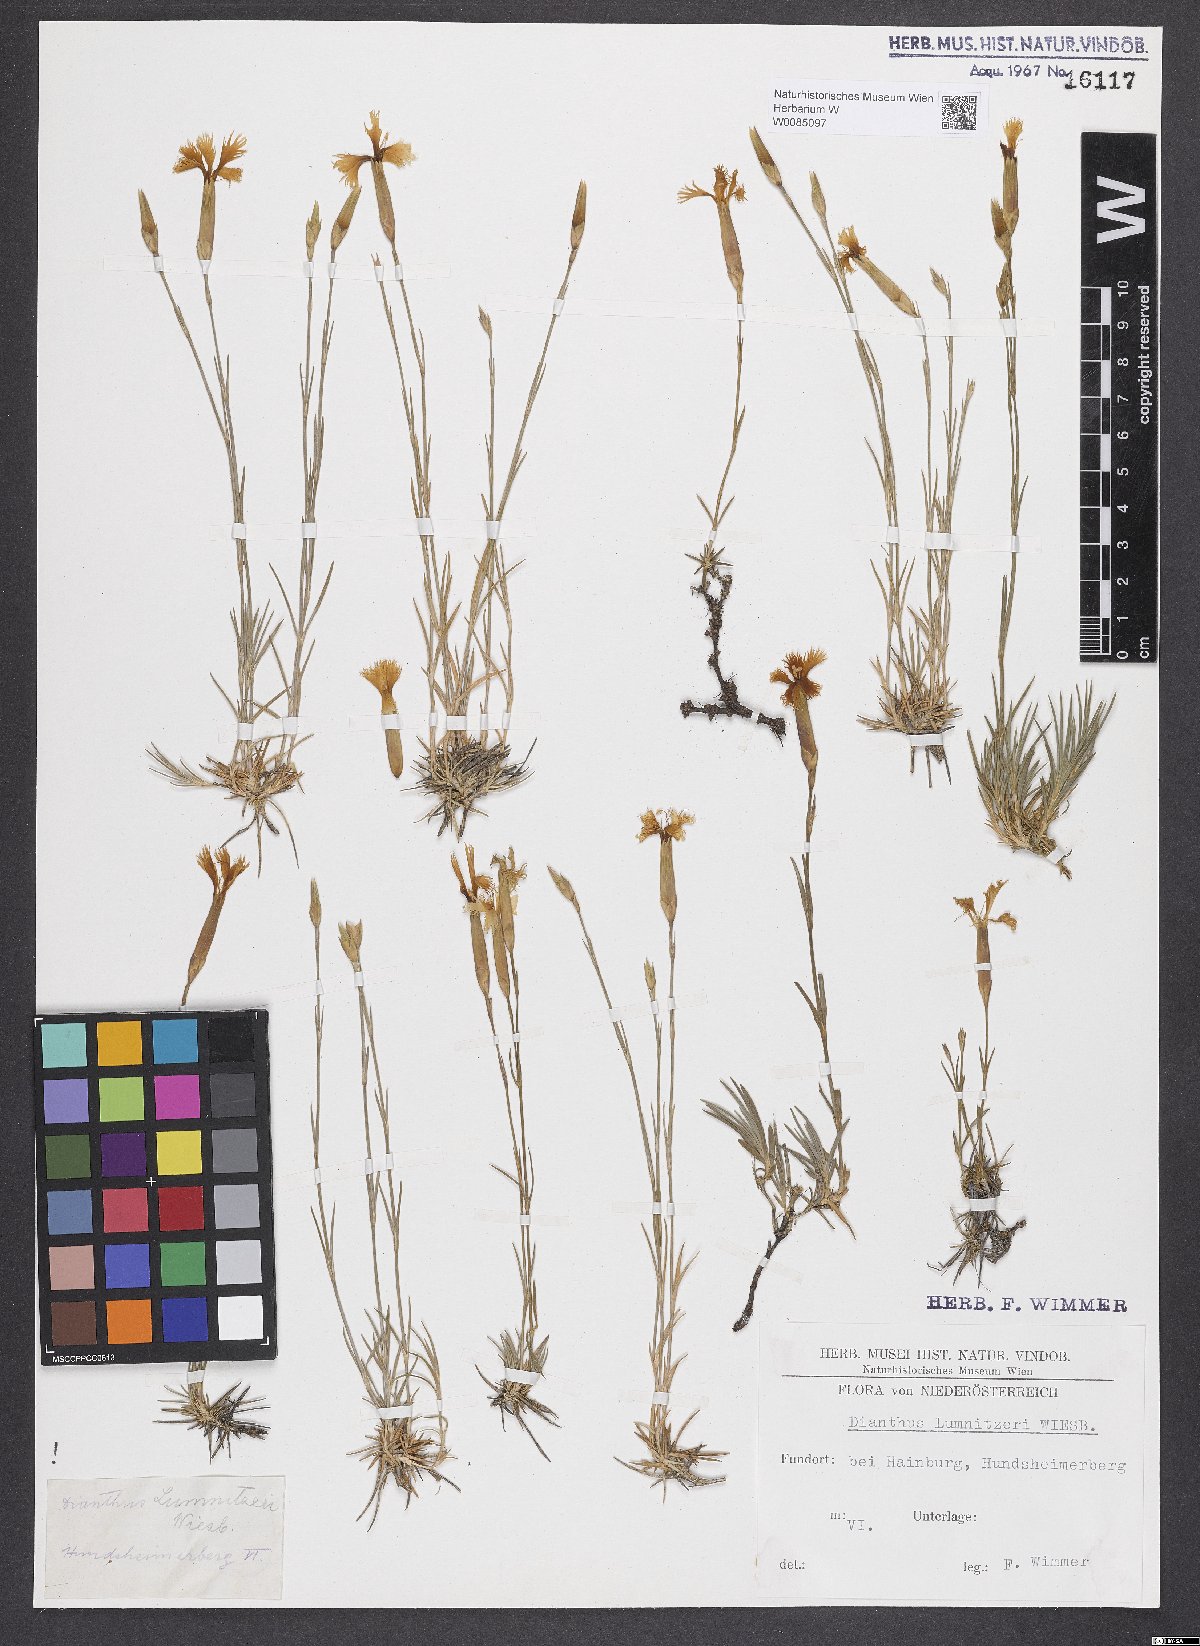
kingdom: Plantae
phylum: Tracheophyta
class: Magnoliopsida
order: Caryophyllales
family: Caryophyllaceae
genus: Dianthus
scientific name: Dianthus praecox
